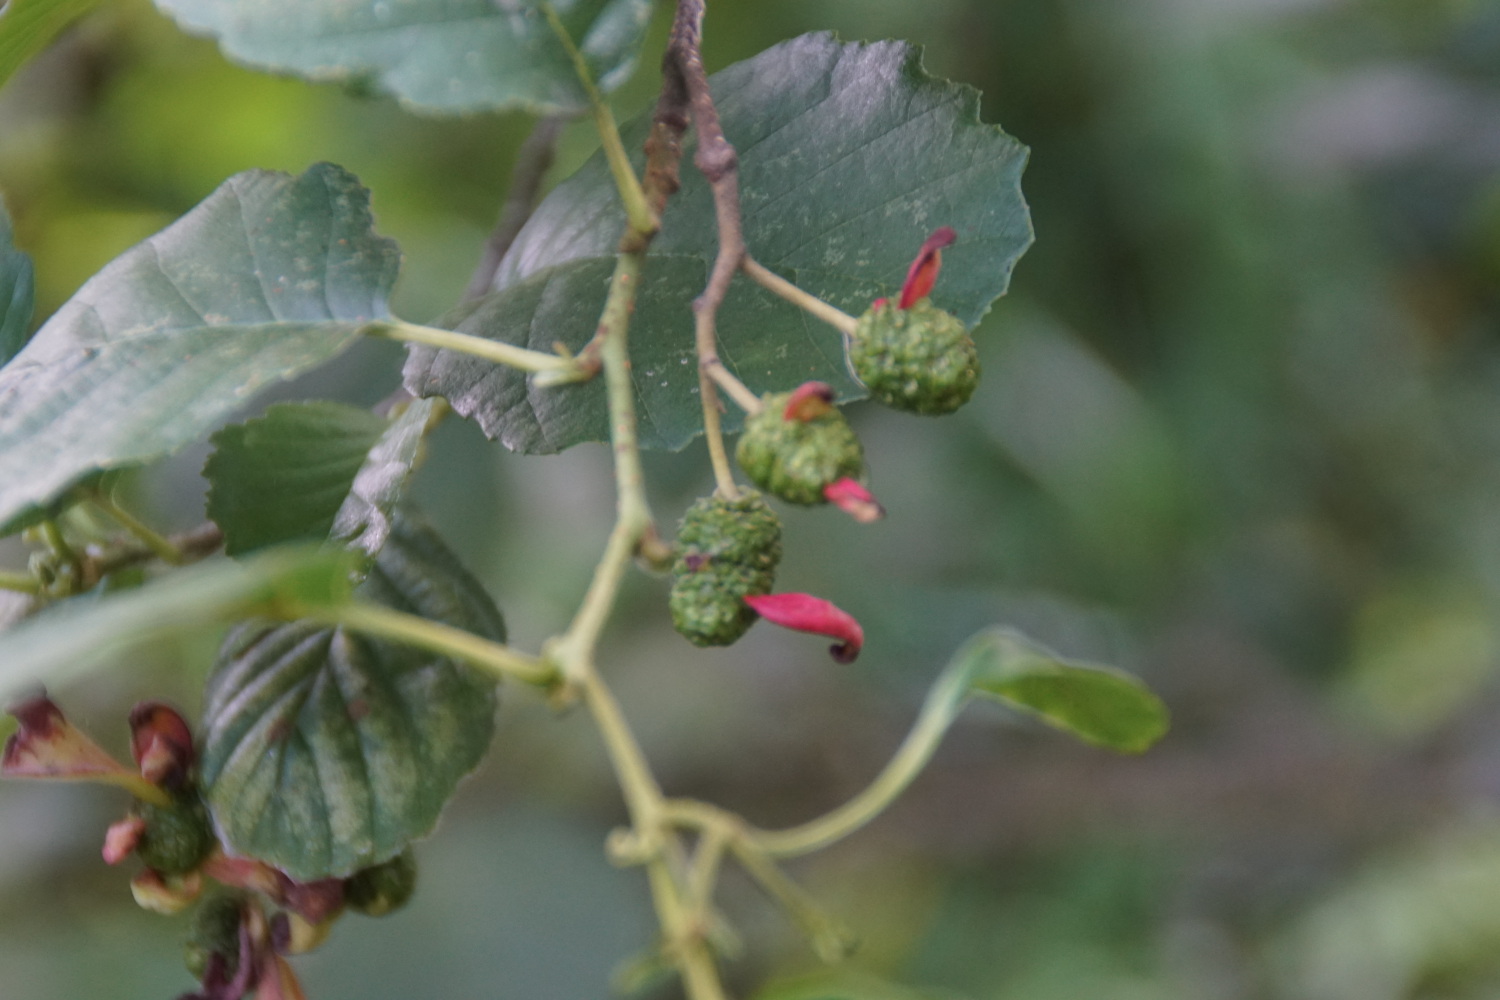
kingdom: Fungi
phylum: Ascomycota
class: Taphrinomycetes
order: Taphrinales
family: Taphrinaceae
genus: Taphrina
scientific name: Taphrina alni
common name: Alder tongue
